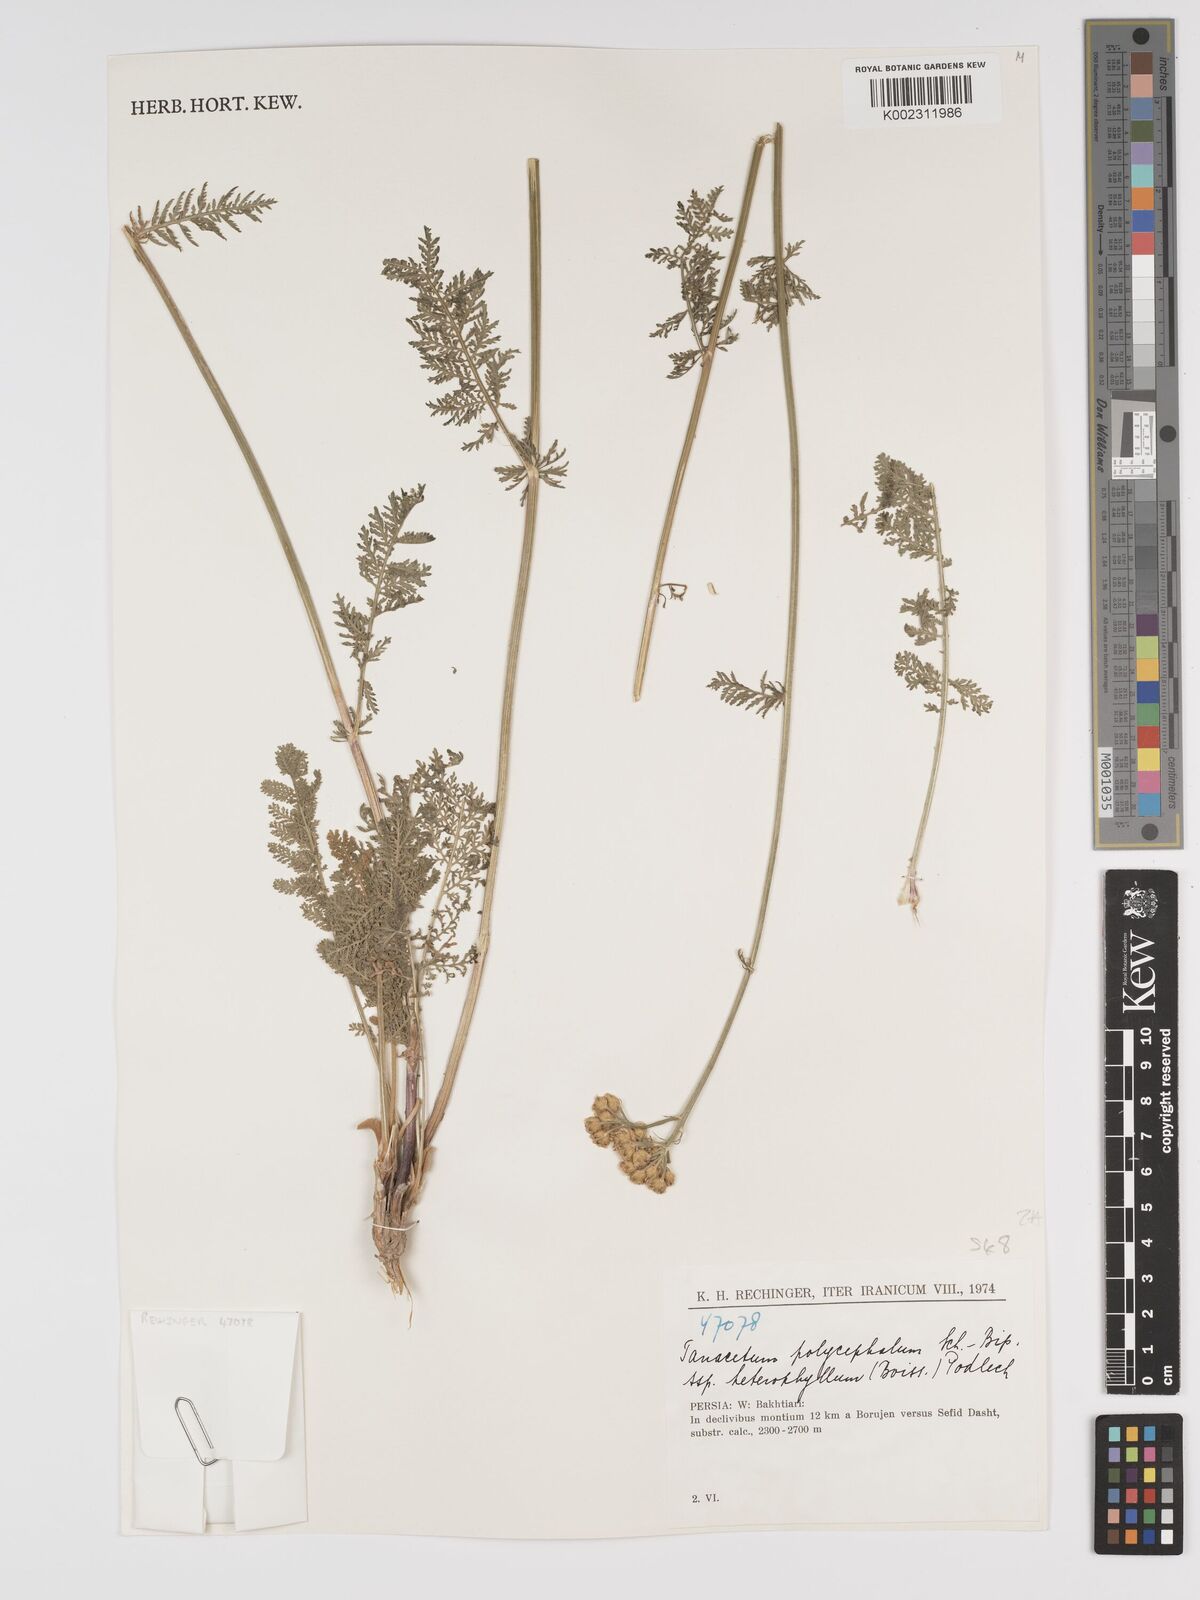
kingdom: Plantae
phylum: Tracheophyta
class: Magnoliopsida
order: Asterales
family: Asteraceae
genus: Tanacetum
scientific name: Tanacetum polycephalum
